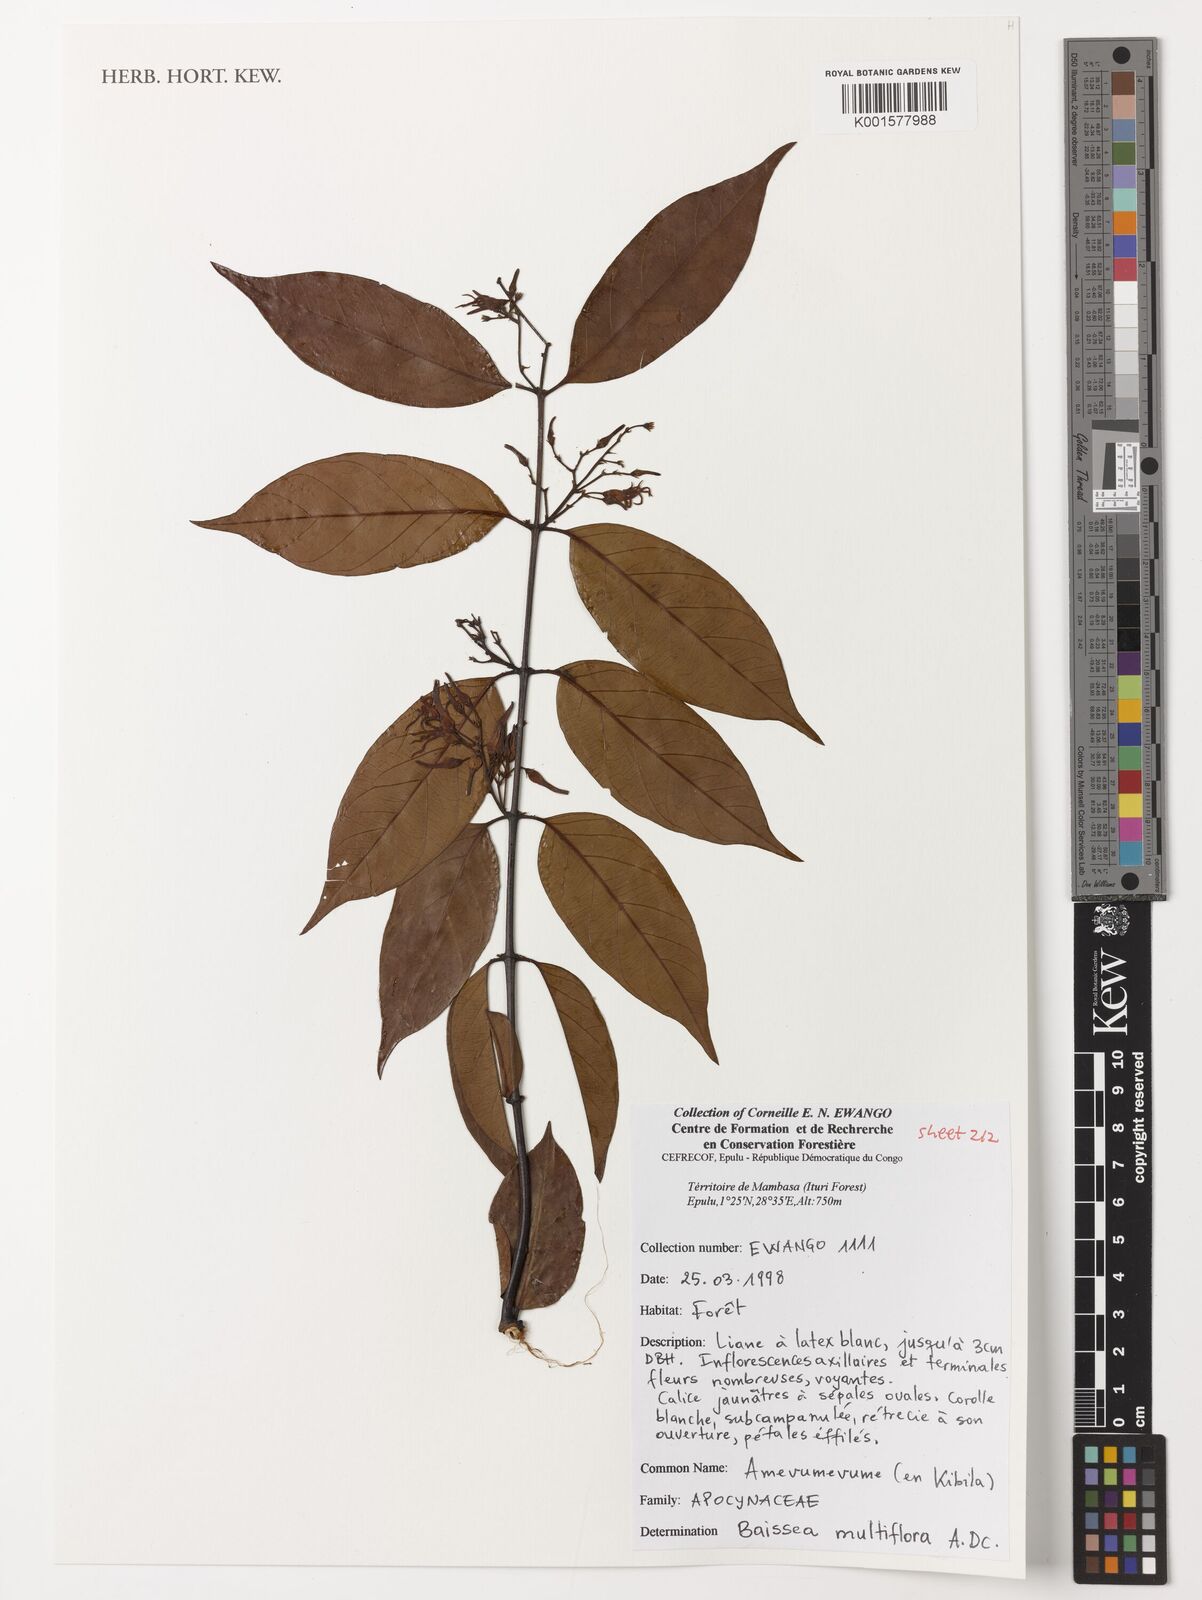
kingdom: Plantae
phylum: Tracheophyta
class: Magnoliopsida
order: Gentianales
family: Apocynaceae
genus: Baissea
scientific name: Baissea multiflora
